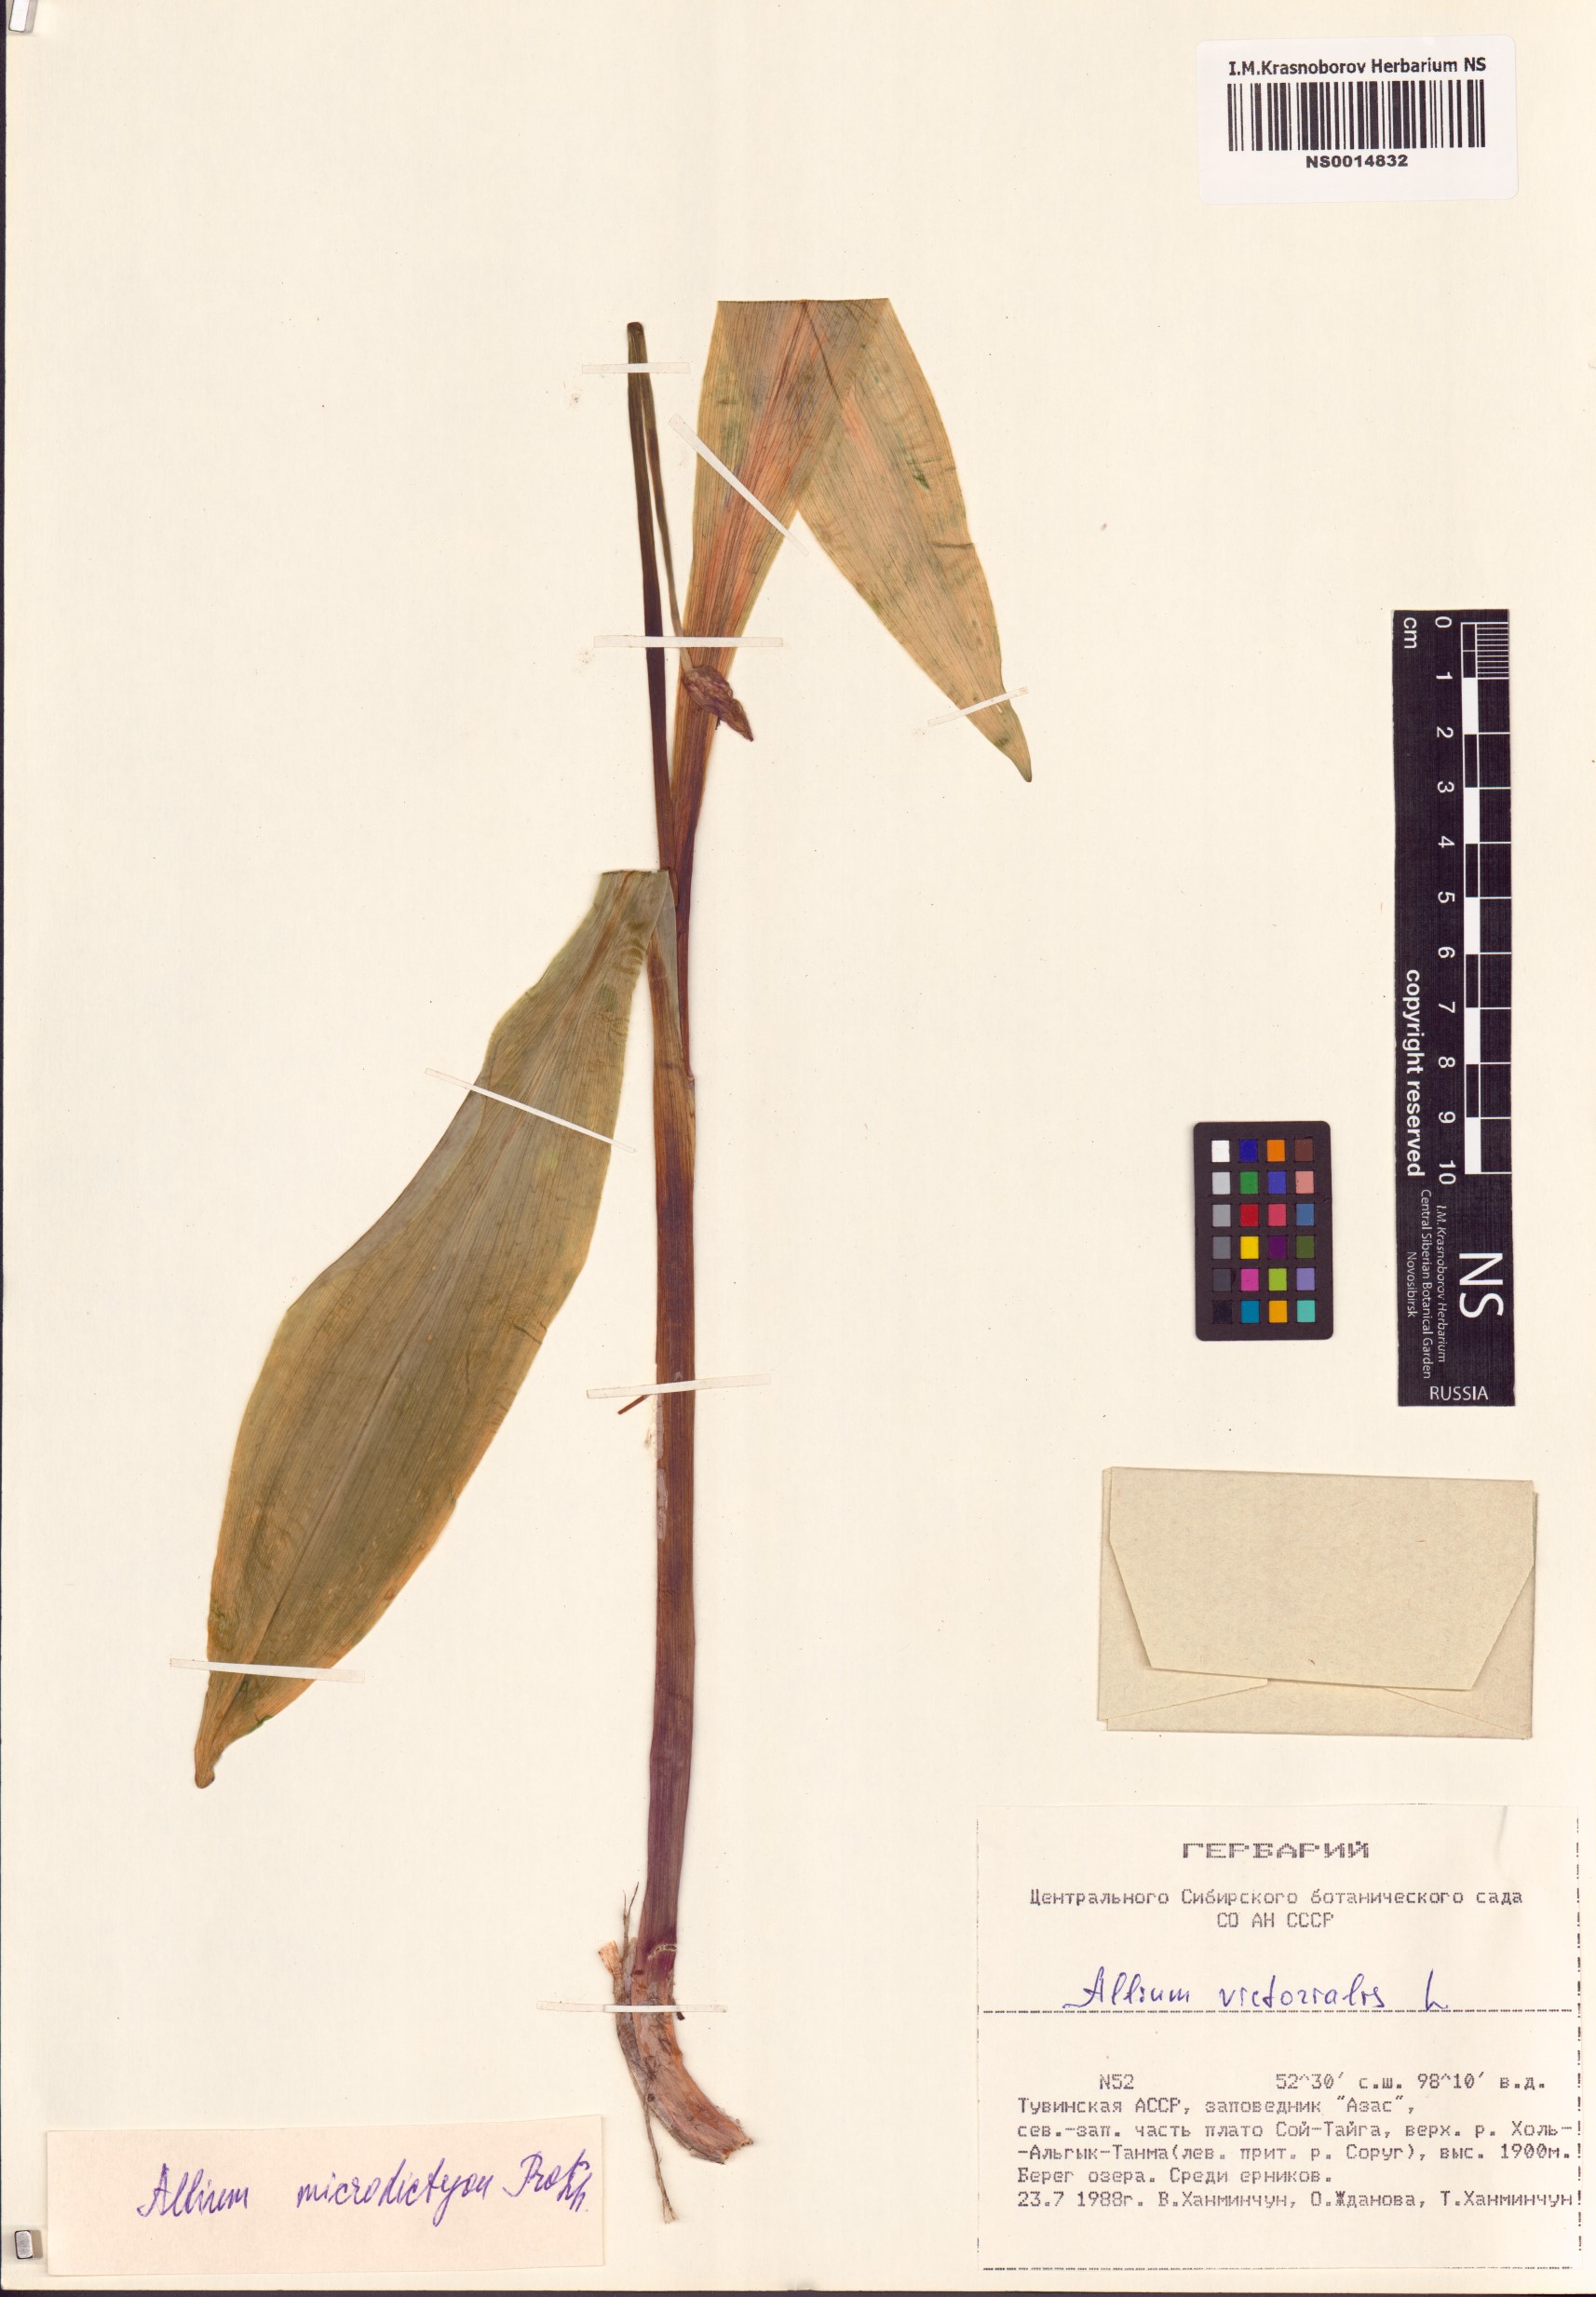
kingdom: Plantae
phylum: Tracheophyta
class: Liliopsida
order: Asparagales
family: Amaryllidaceae
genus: Allium
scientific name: Allium microdictyon
